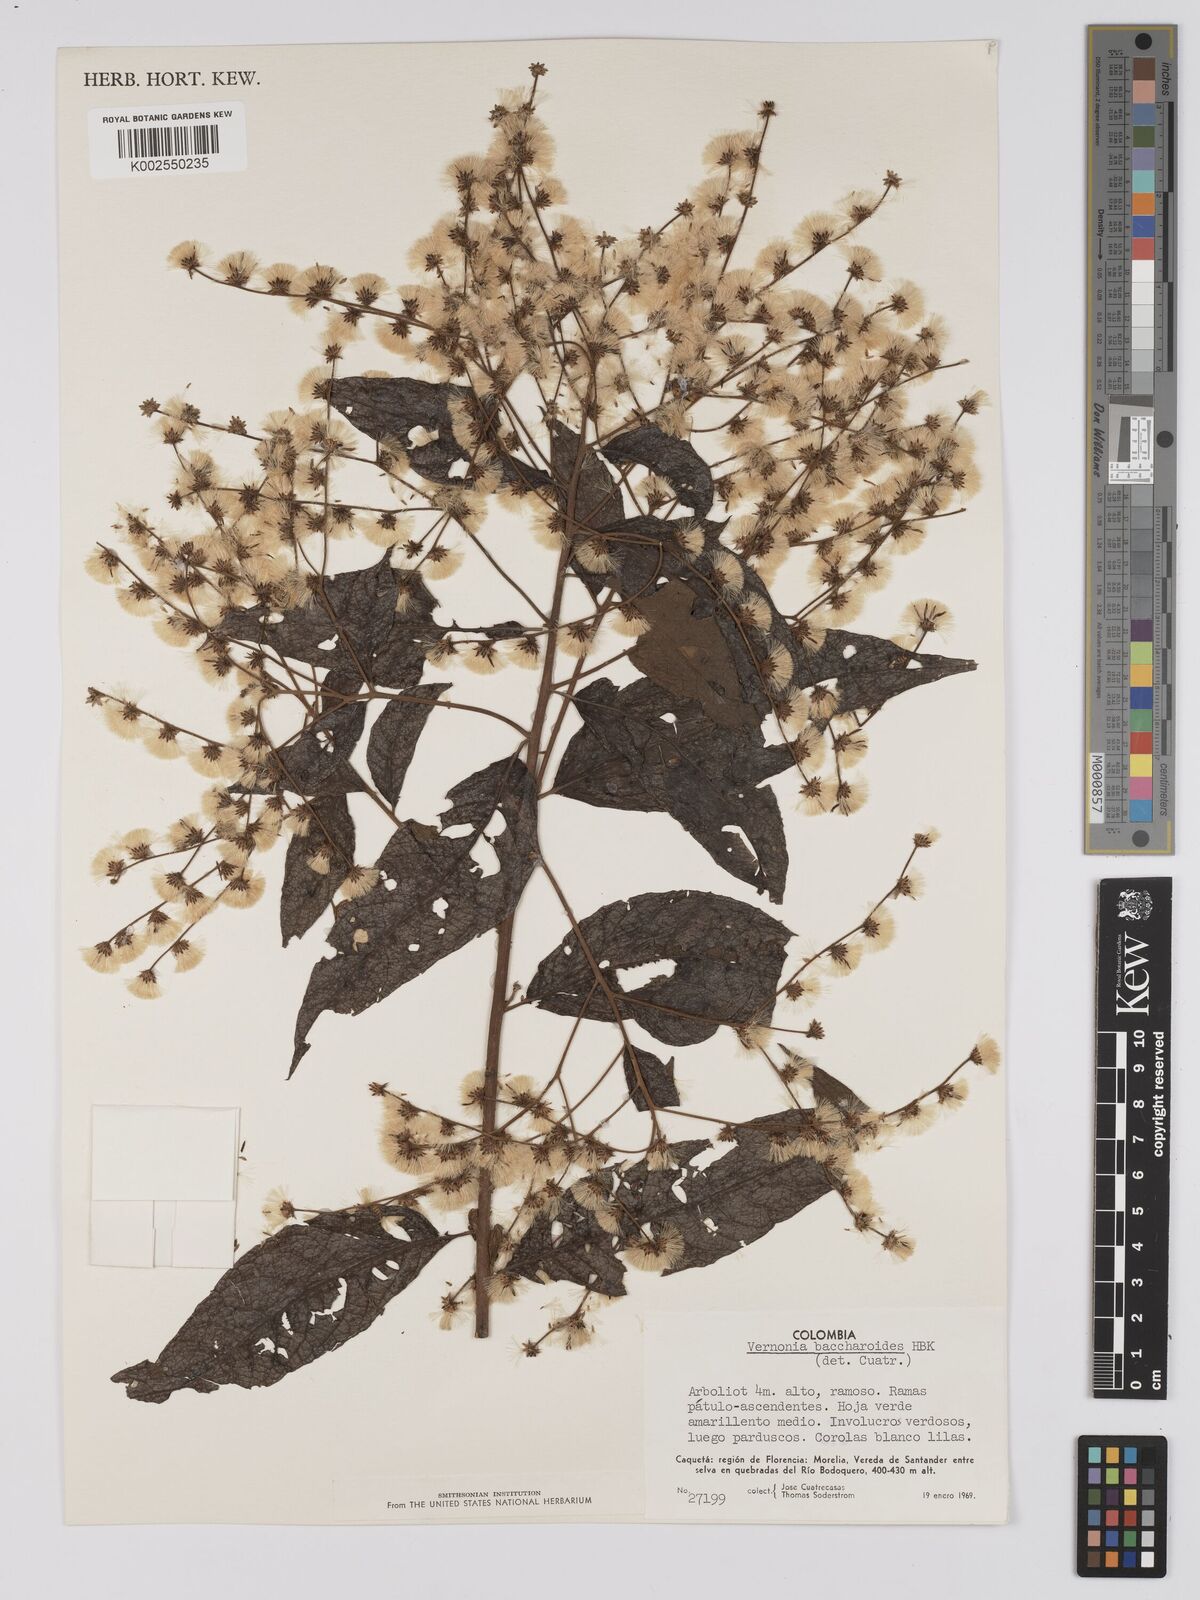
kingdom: Plantae
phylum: Tracheophyta
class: Magnoliopsida
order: Asterales
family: Asteraceae
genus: Vernonanthura
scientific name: Vernonanthura patens
